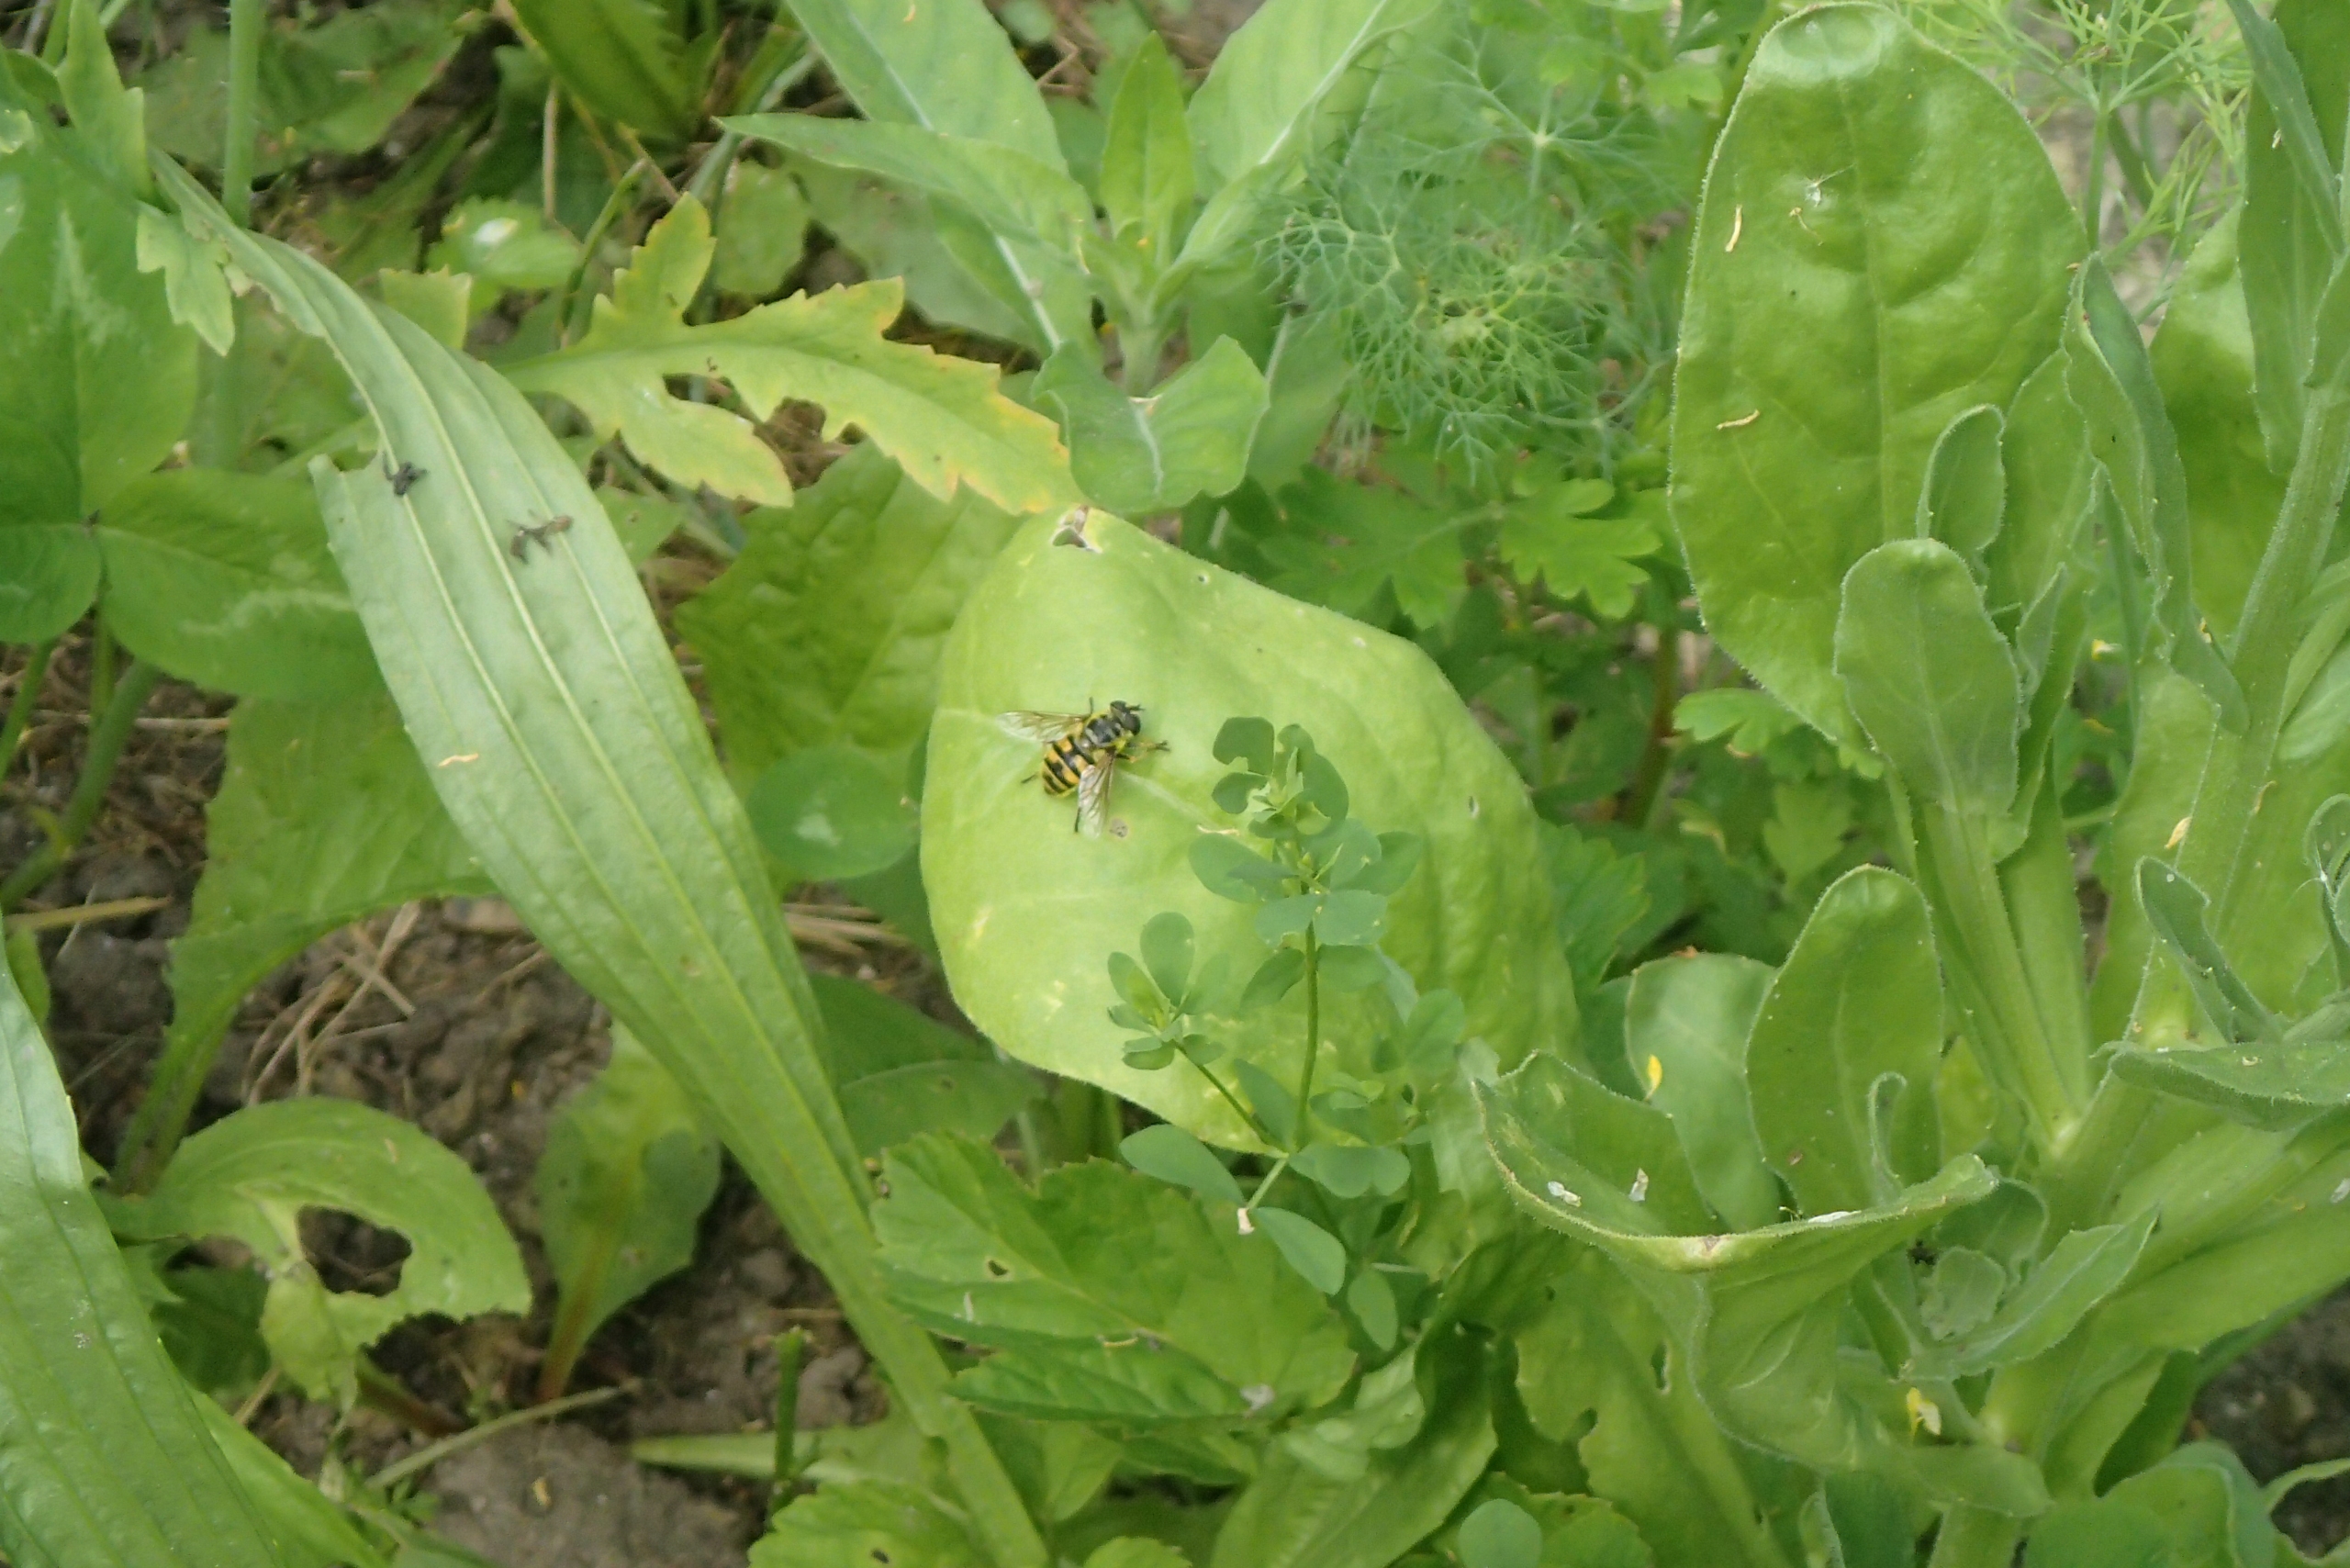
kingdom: Animalia
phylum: Arthropoda
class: Insecta
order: Diptera
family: Syrphidae
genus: Myathropa
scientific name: Myathropa florea
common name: Dødningehoved-svirreflue
